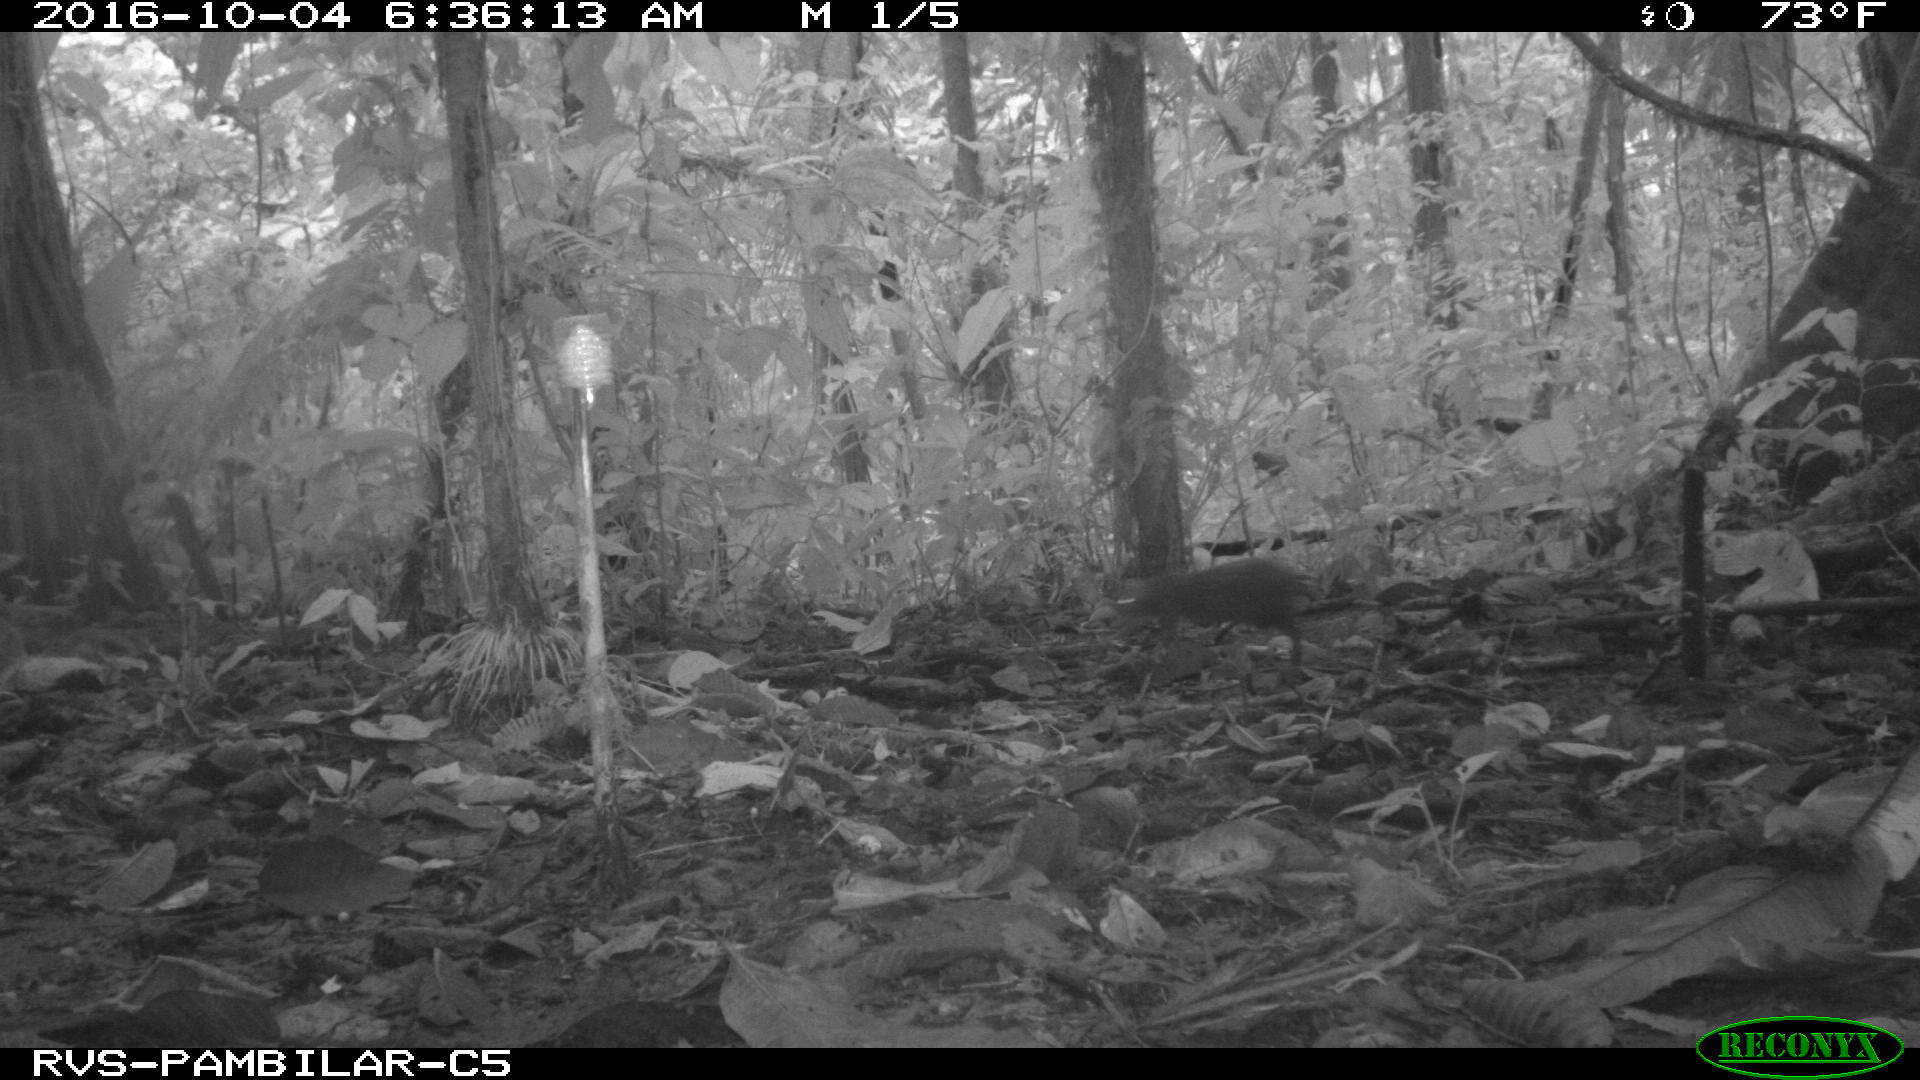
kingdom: Animalia
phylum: Chordata
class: Mammalia
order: Rodentia
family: Dasyproctidae
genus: Dasyprocta
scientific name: Dasyprocta punctata
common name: Central american agouti
